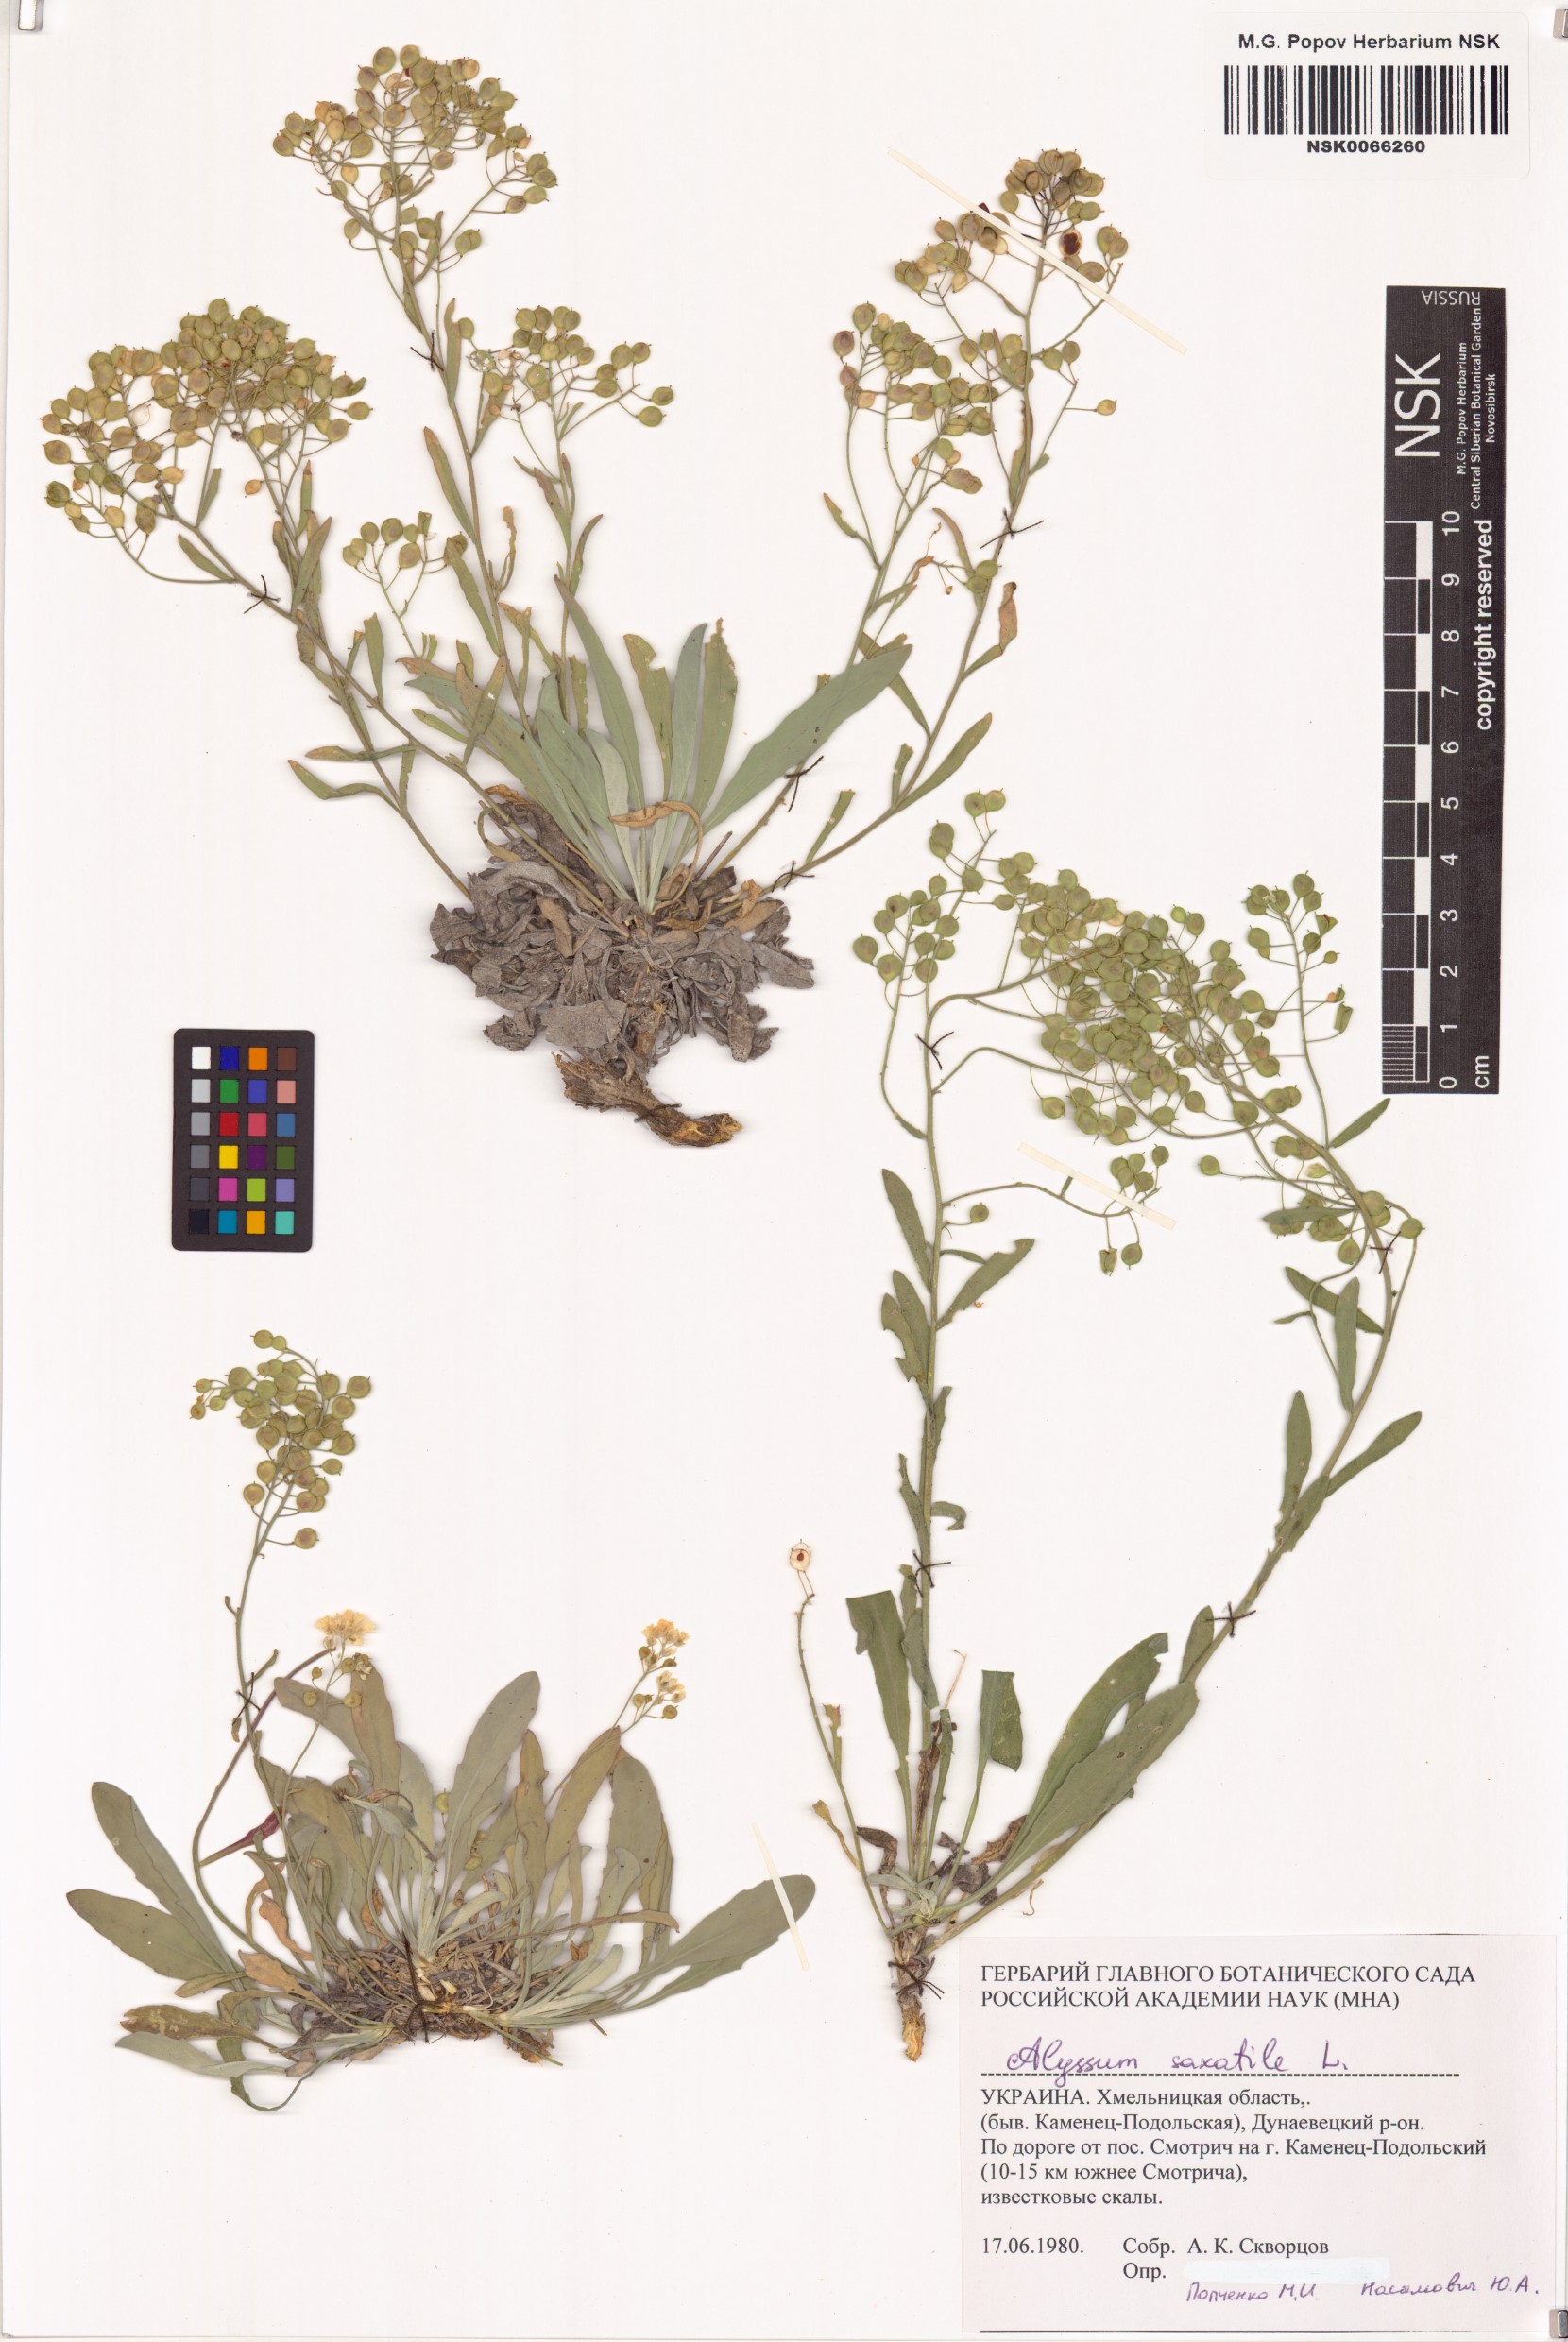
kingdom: Plantae
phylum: Tracheophyta
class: Magnoliopsida
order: Brassicales
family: Brassicaceae
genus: Aurinia
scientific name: Aurinia saxatilis
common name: Golden-tuft alyssum
